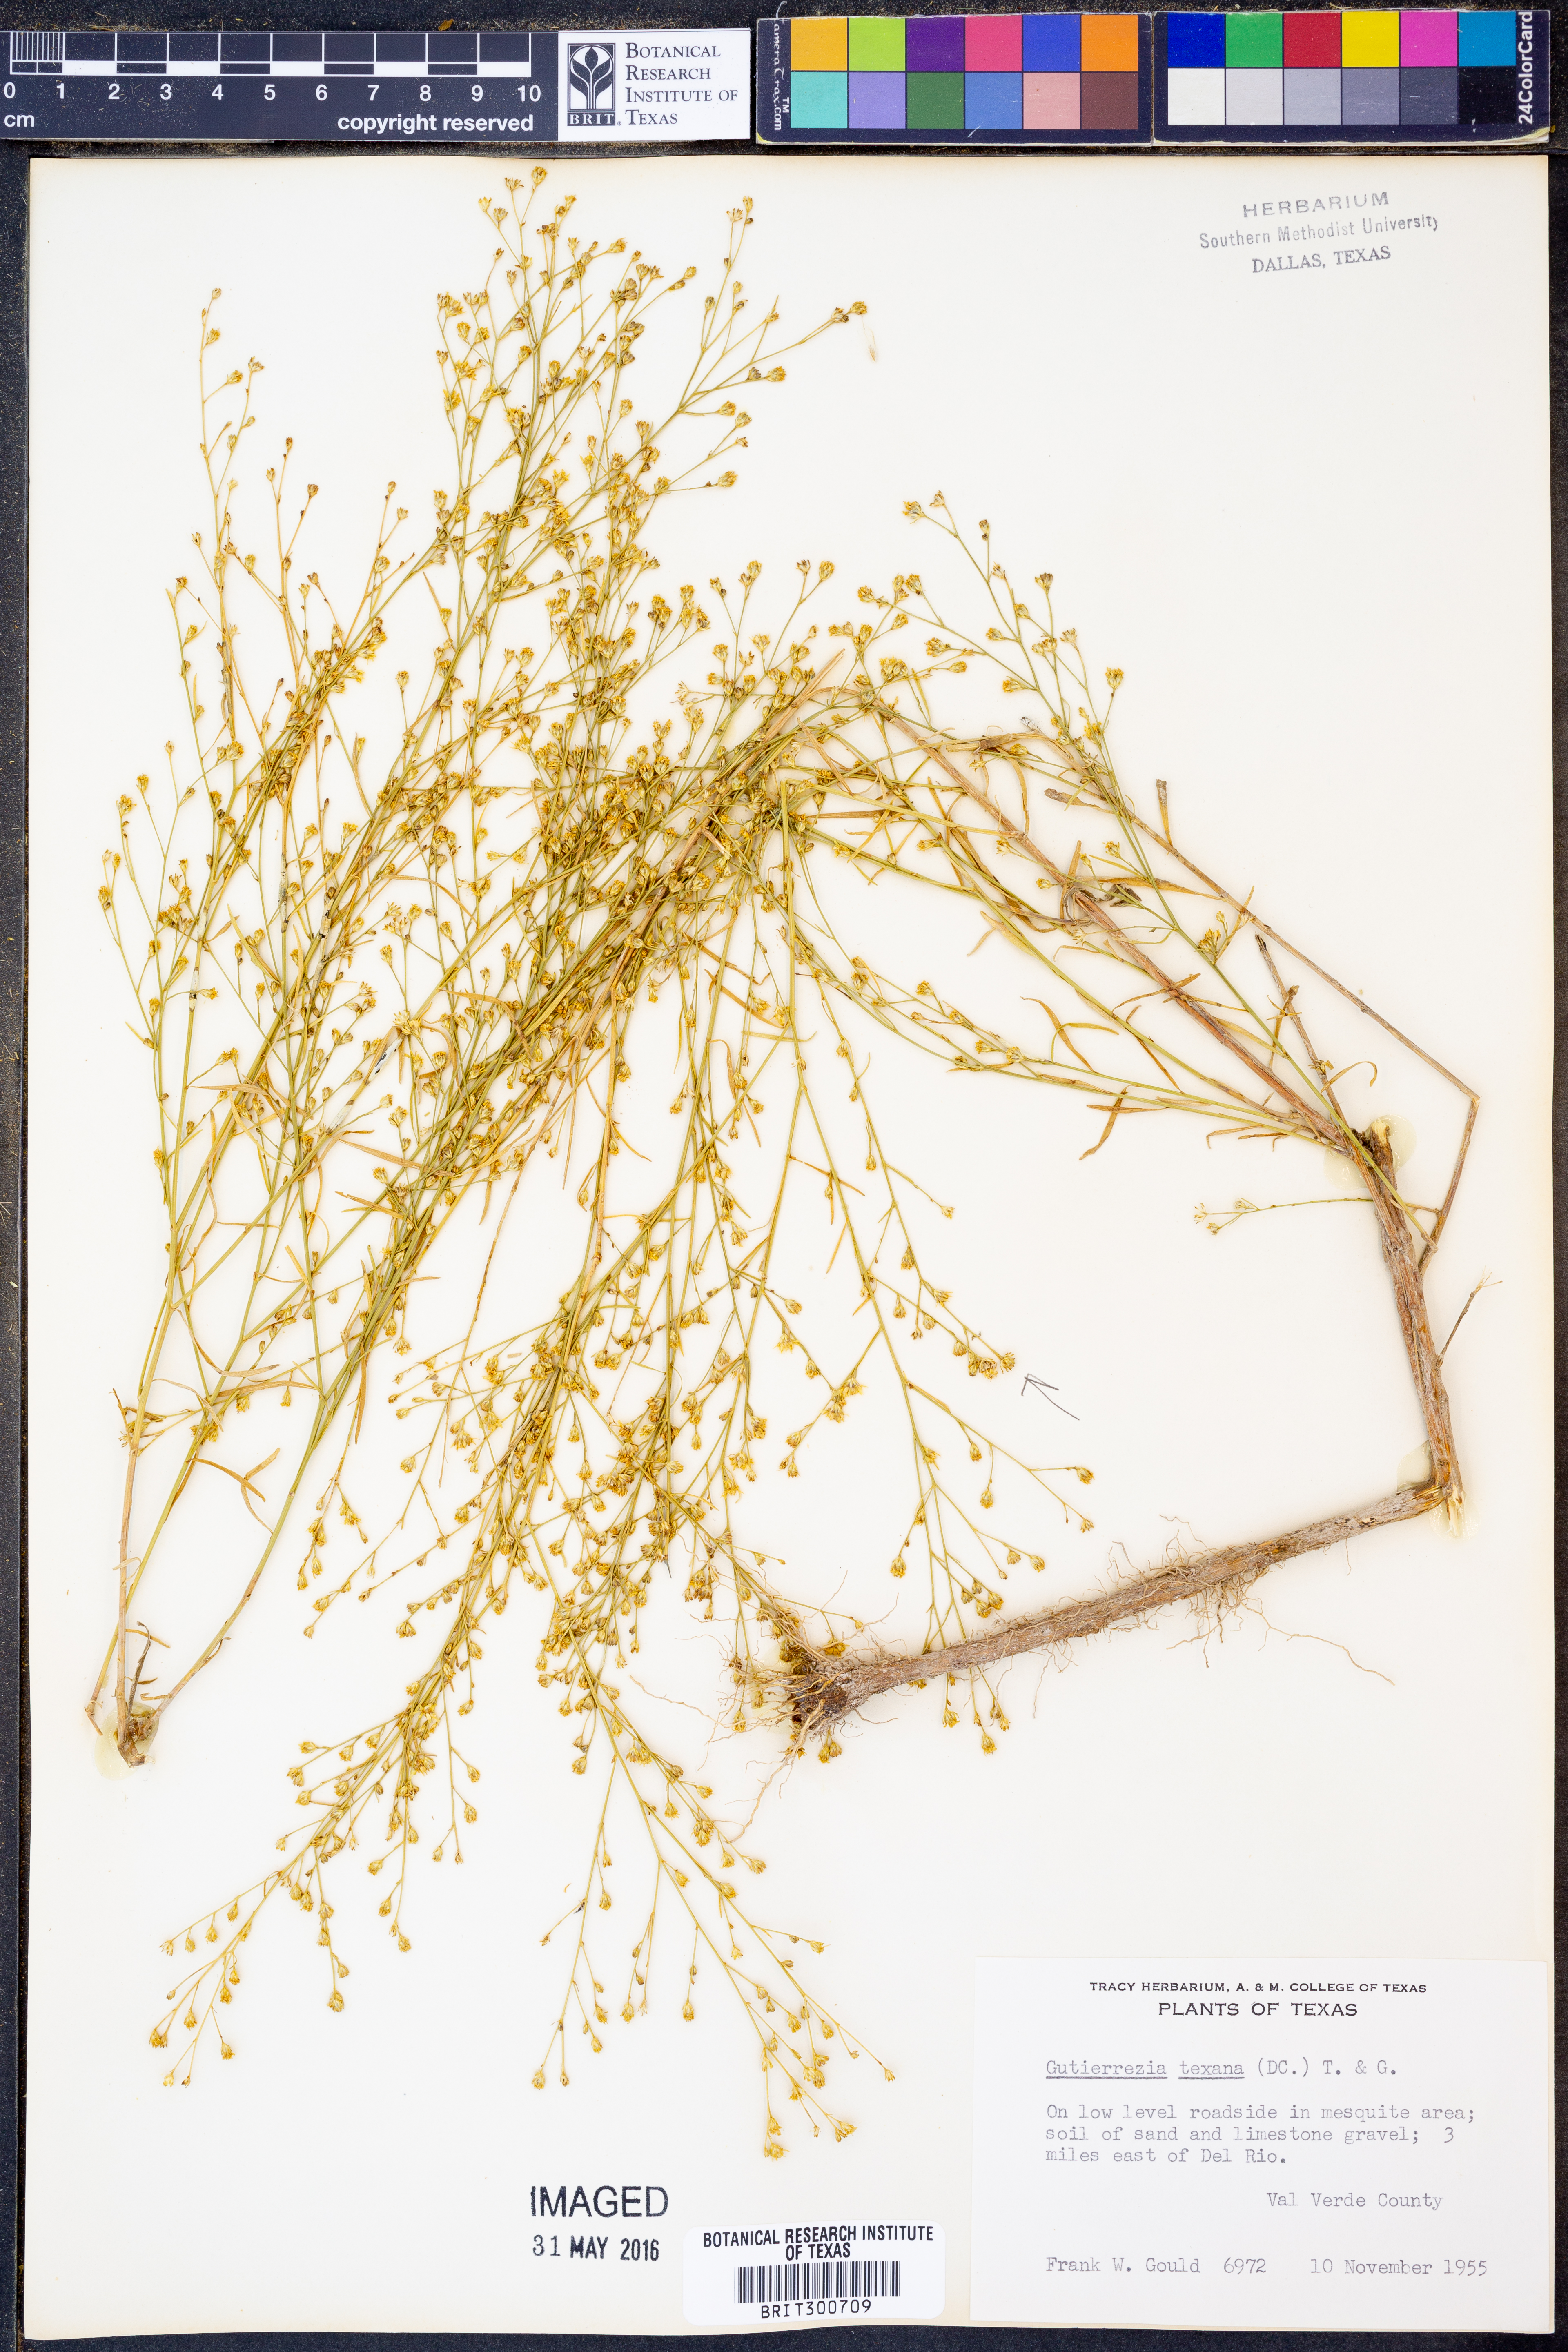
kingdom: Plantae
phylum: Tracheophyta
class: Magnoliopsida
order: Asterales
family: Asteraceae
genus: Gutierrezia
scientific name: Gutierrezia texana
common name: Texas snakeweed
